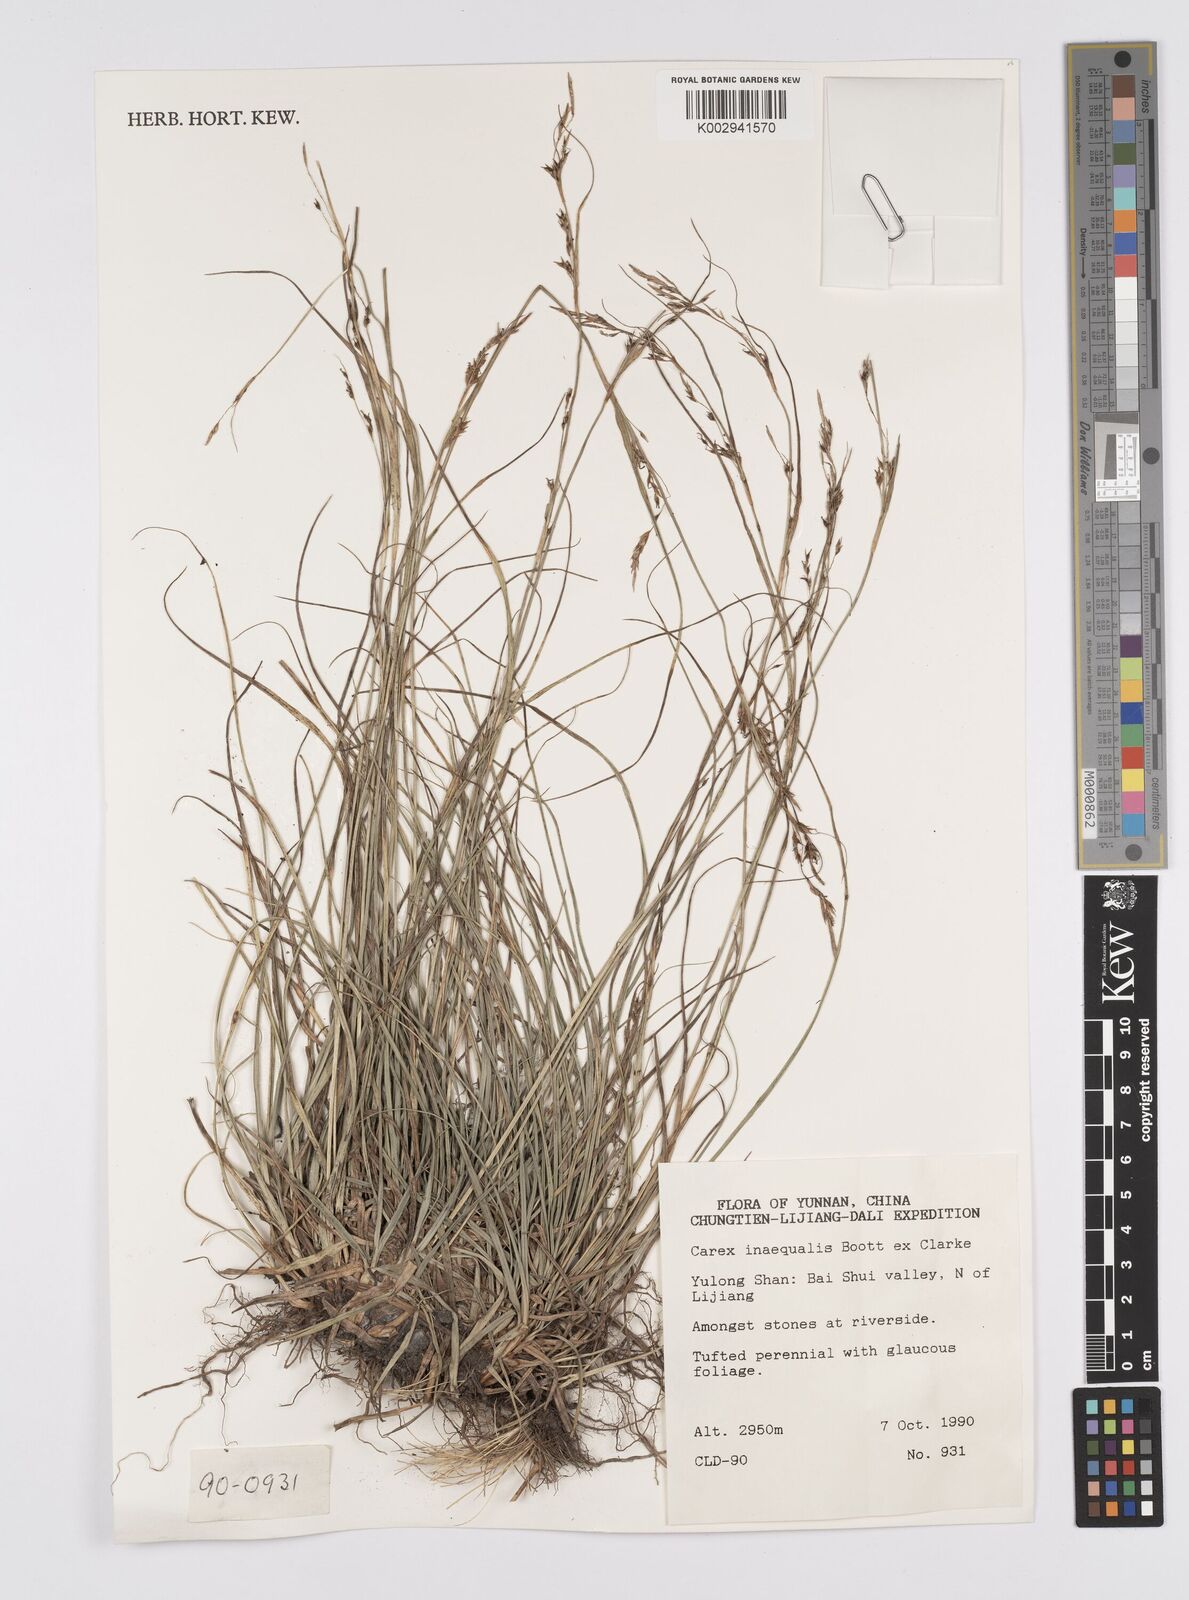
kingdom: Plantae
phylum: Tracheophyta
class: Liliopsida
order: Poales
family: Cyperaceae
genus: Carex
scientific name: Carex anomoea
